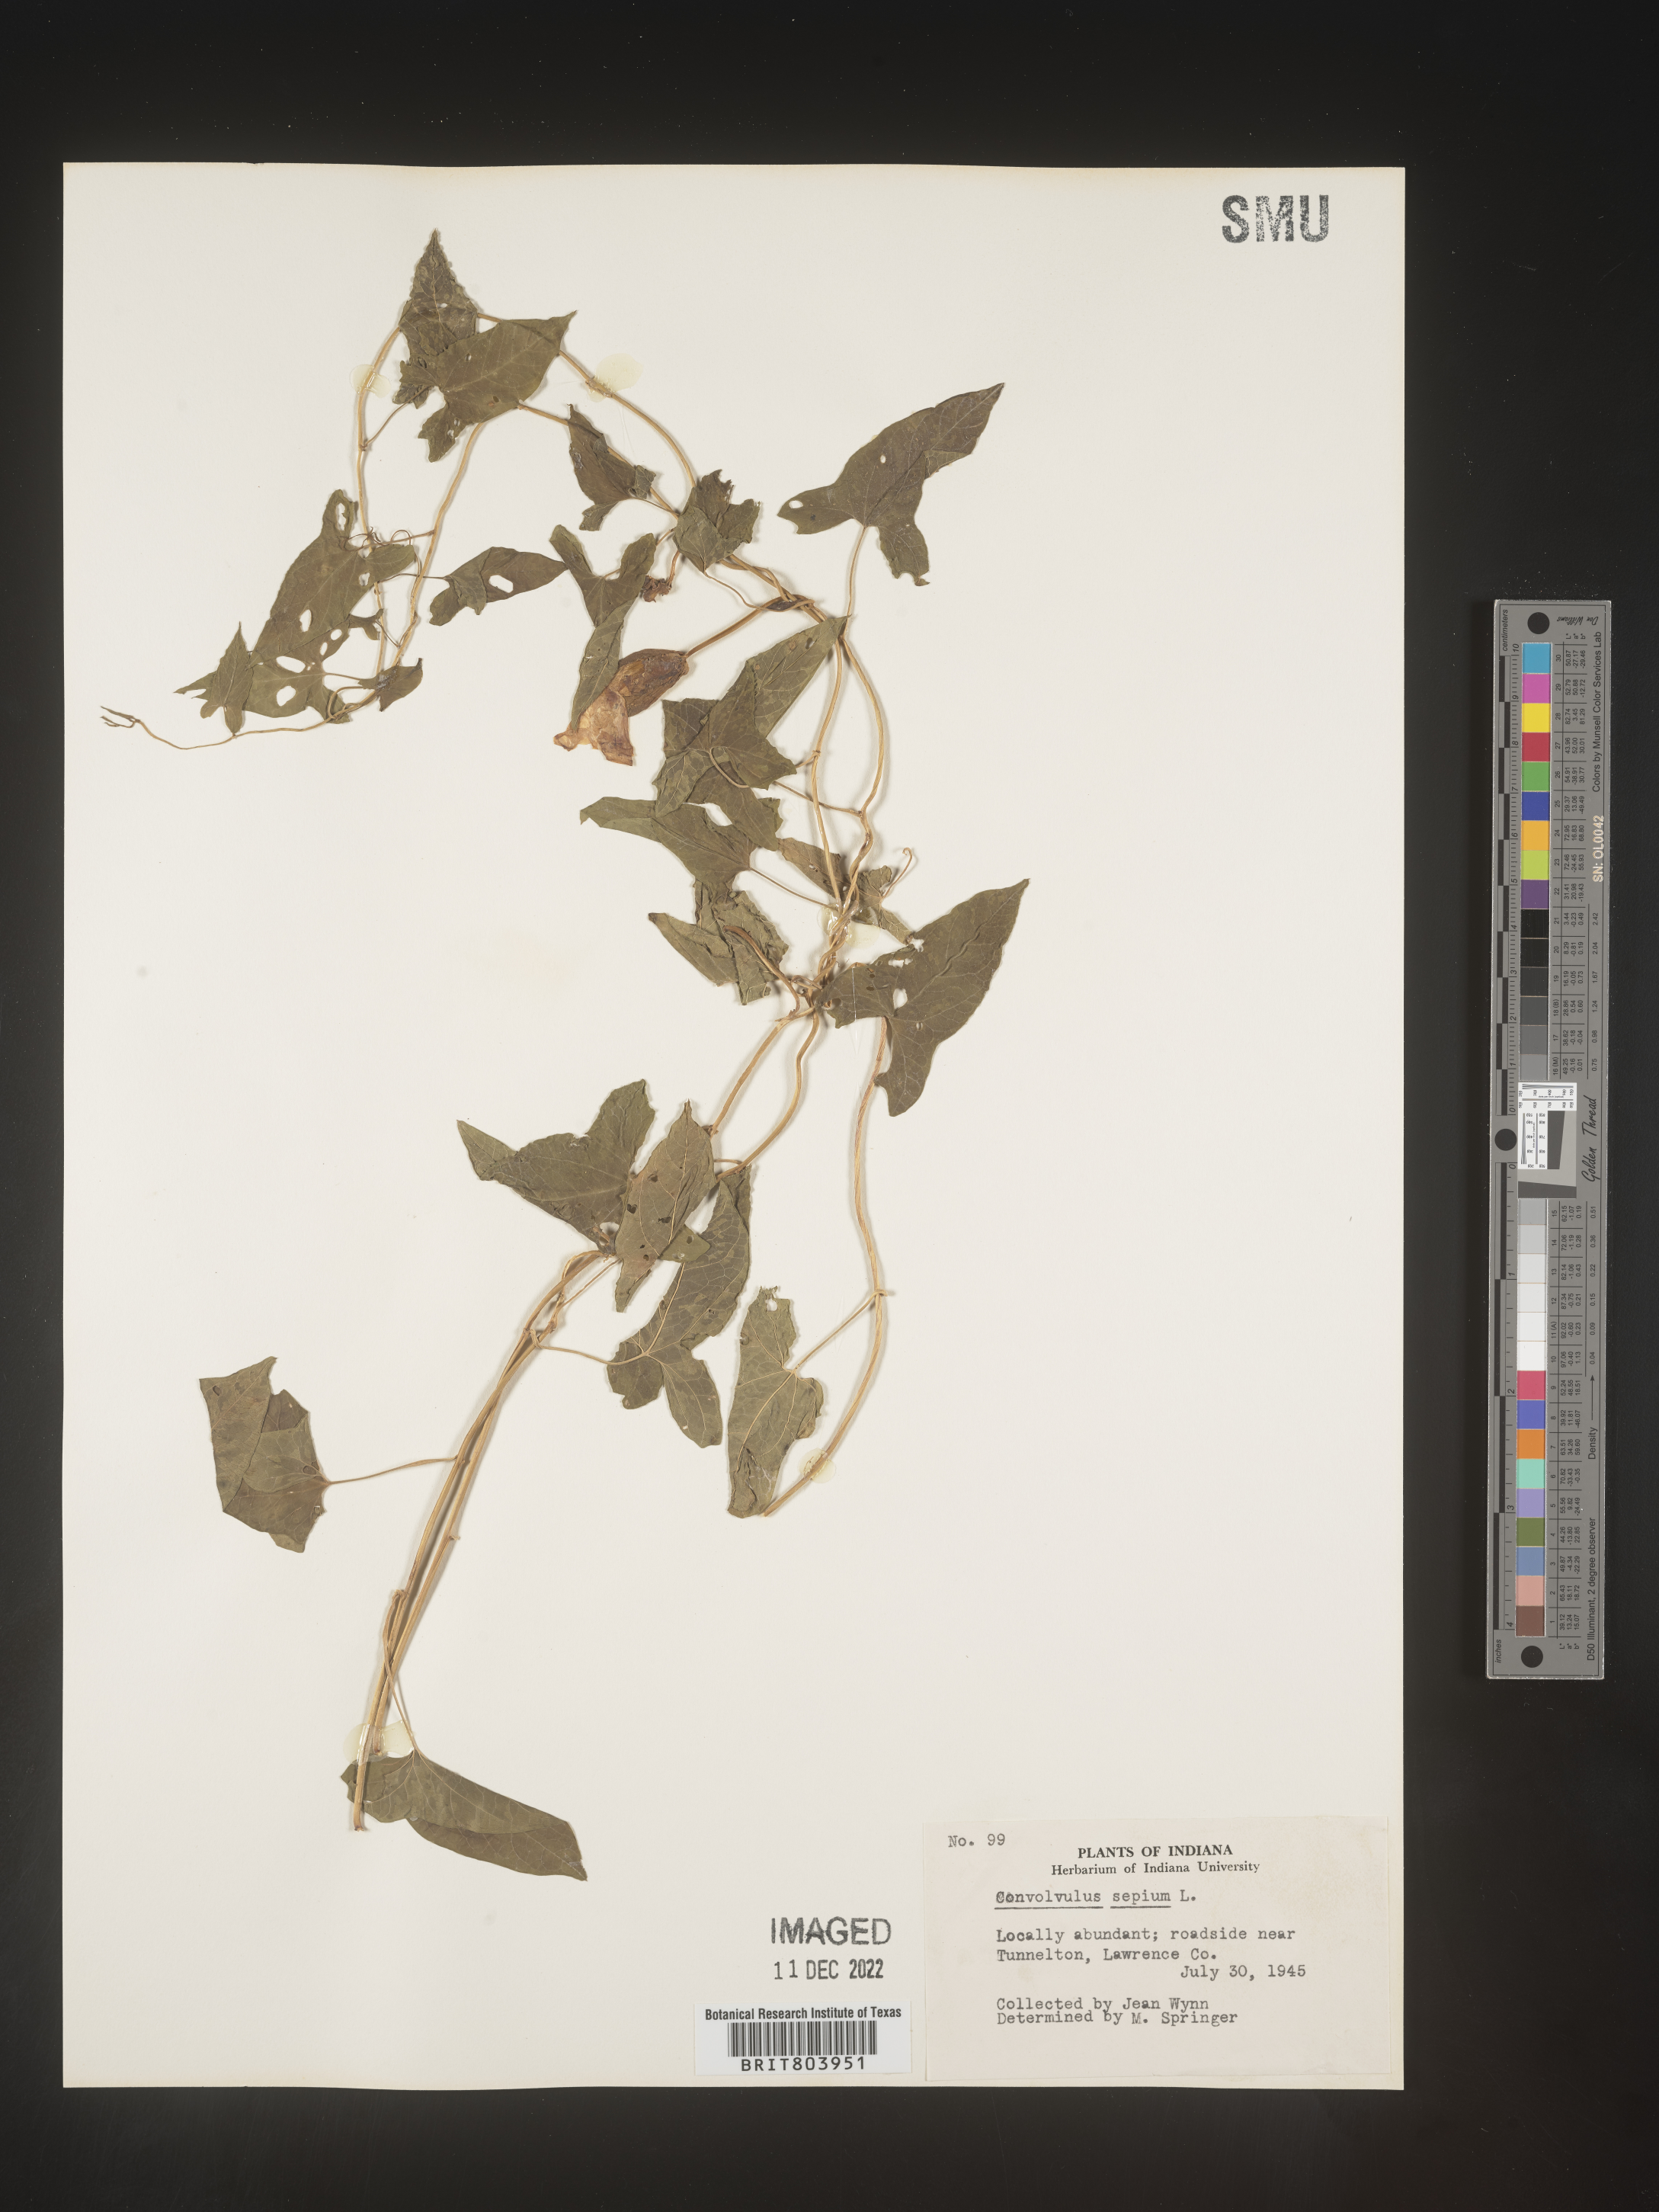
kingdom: Plantae
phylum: Tracheophyta
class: Magnoliopsida
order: Solanales
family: Convolvulaceae
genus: Calystegia
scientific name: Calystegia sepium
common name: Hedge bindweed
